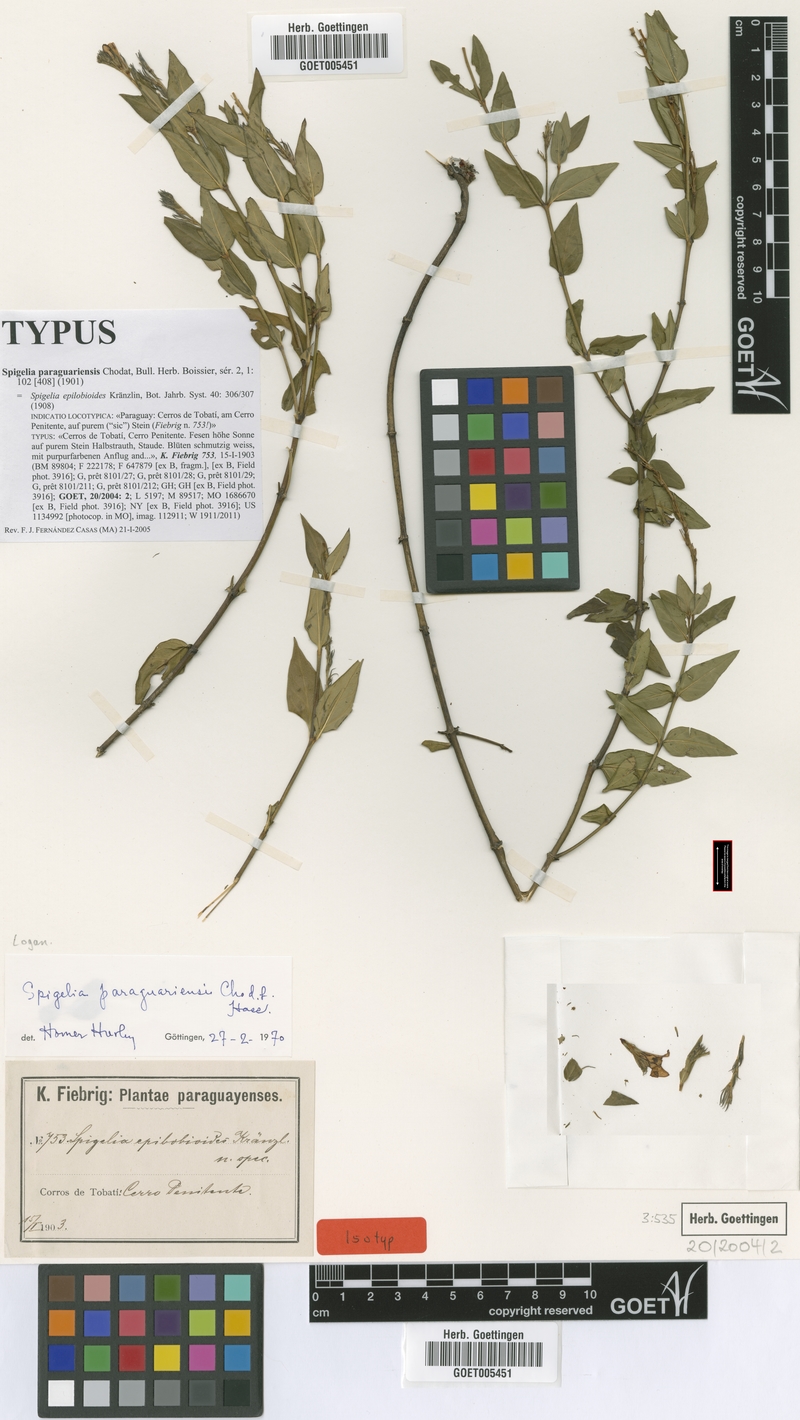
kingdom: Plantae
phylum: Tracheophyta
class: Magnoliopsida
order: Gentianales
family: Loganiaceae
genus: Spigelia
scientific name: Spigelia paraguariensis
